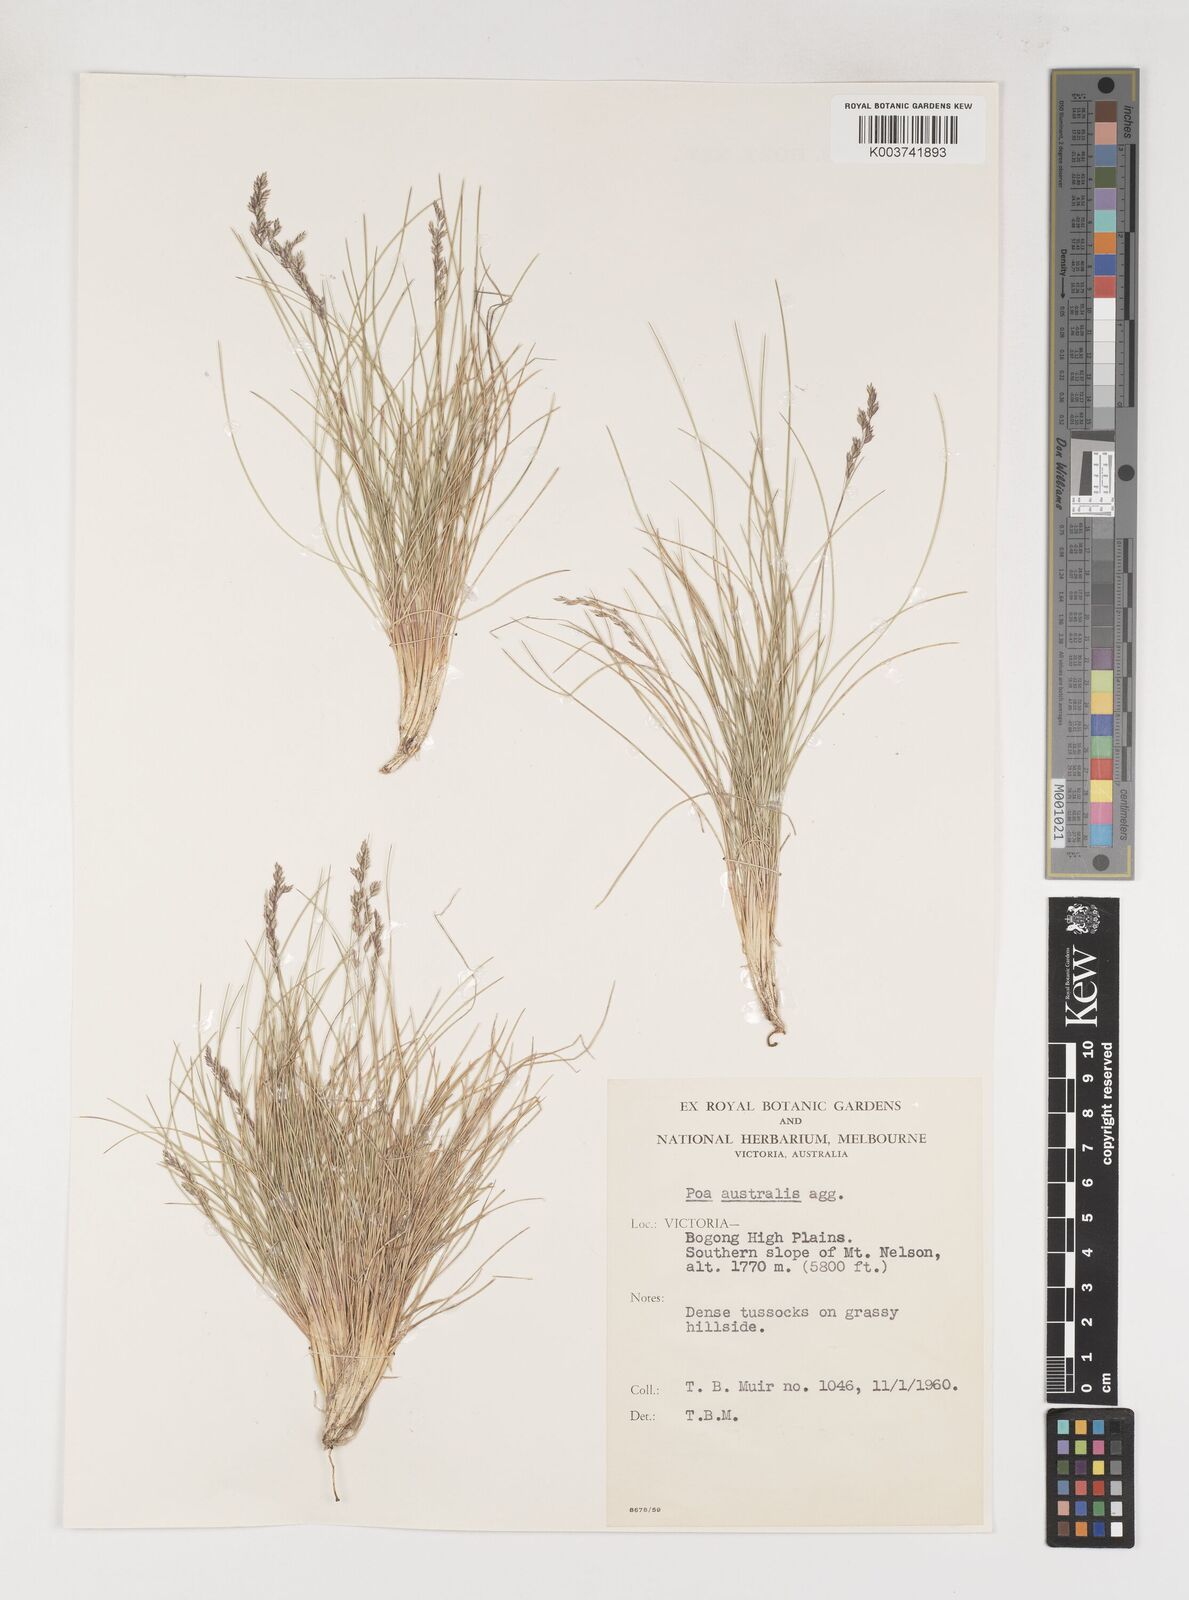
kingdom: Plantae
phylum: Tracheophyta
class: Liliopsida
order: Poales
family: Poaceae
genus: Poa
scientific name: Poa sieberiana
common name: Tussock poa
